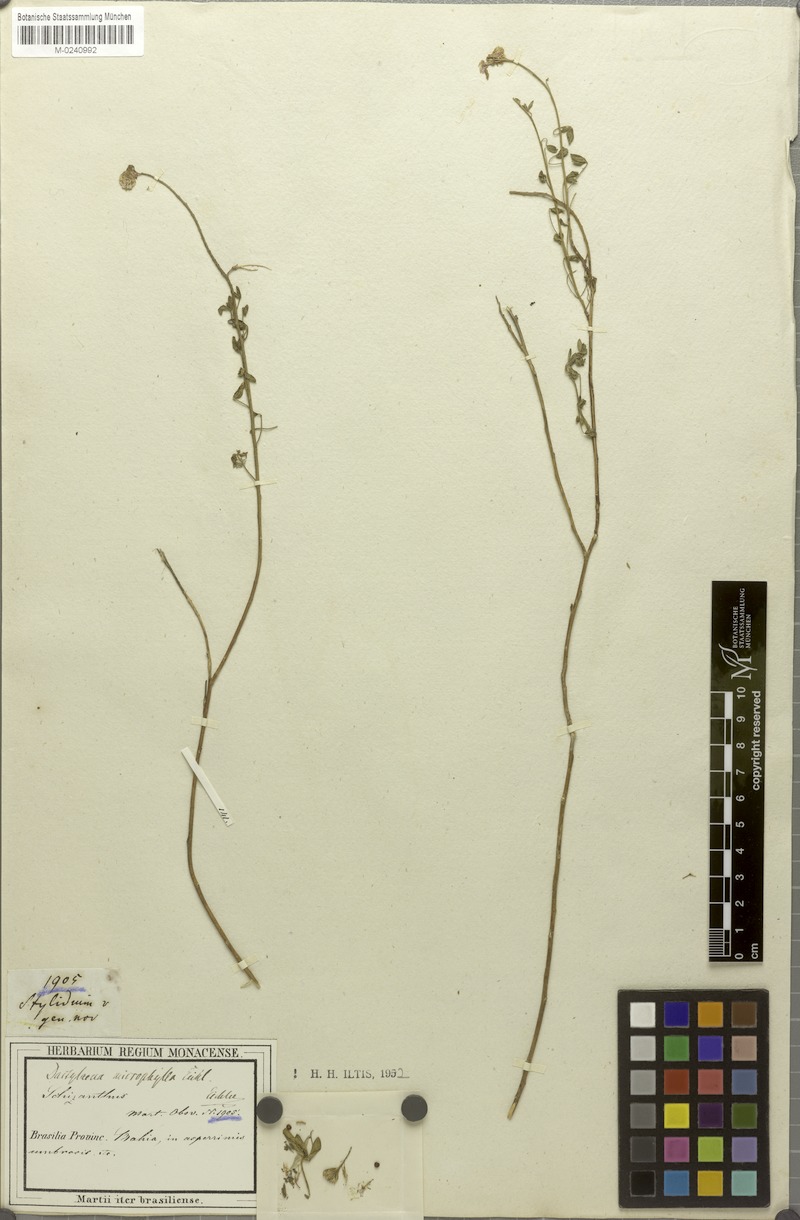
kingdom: Plantae
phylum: Tracheophyta
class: Magnoliopsida
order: Brassicales
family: Cleomaceae
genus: Dactylaena
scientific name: Dactylaena microphylla
